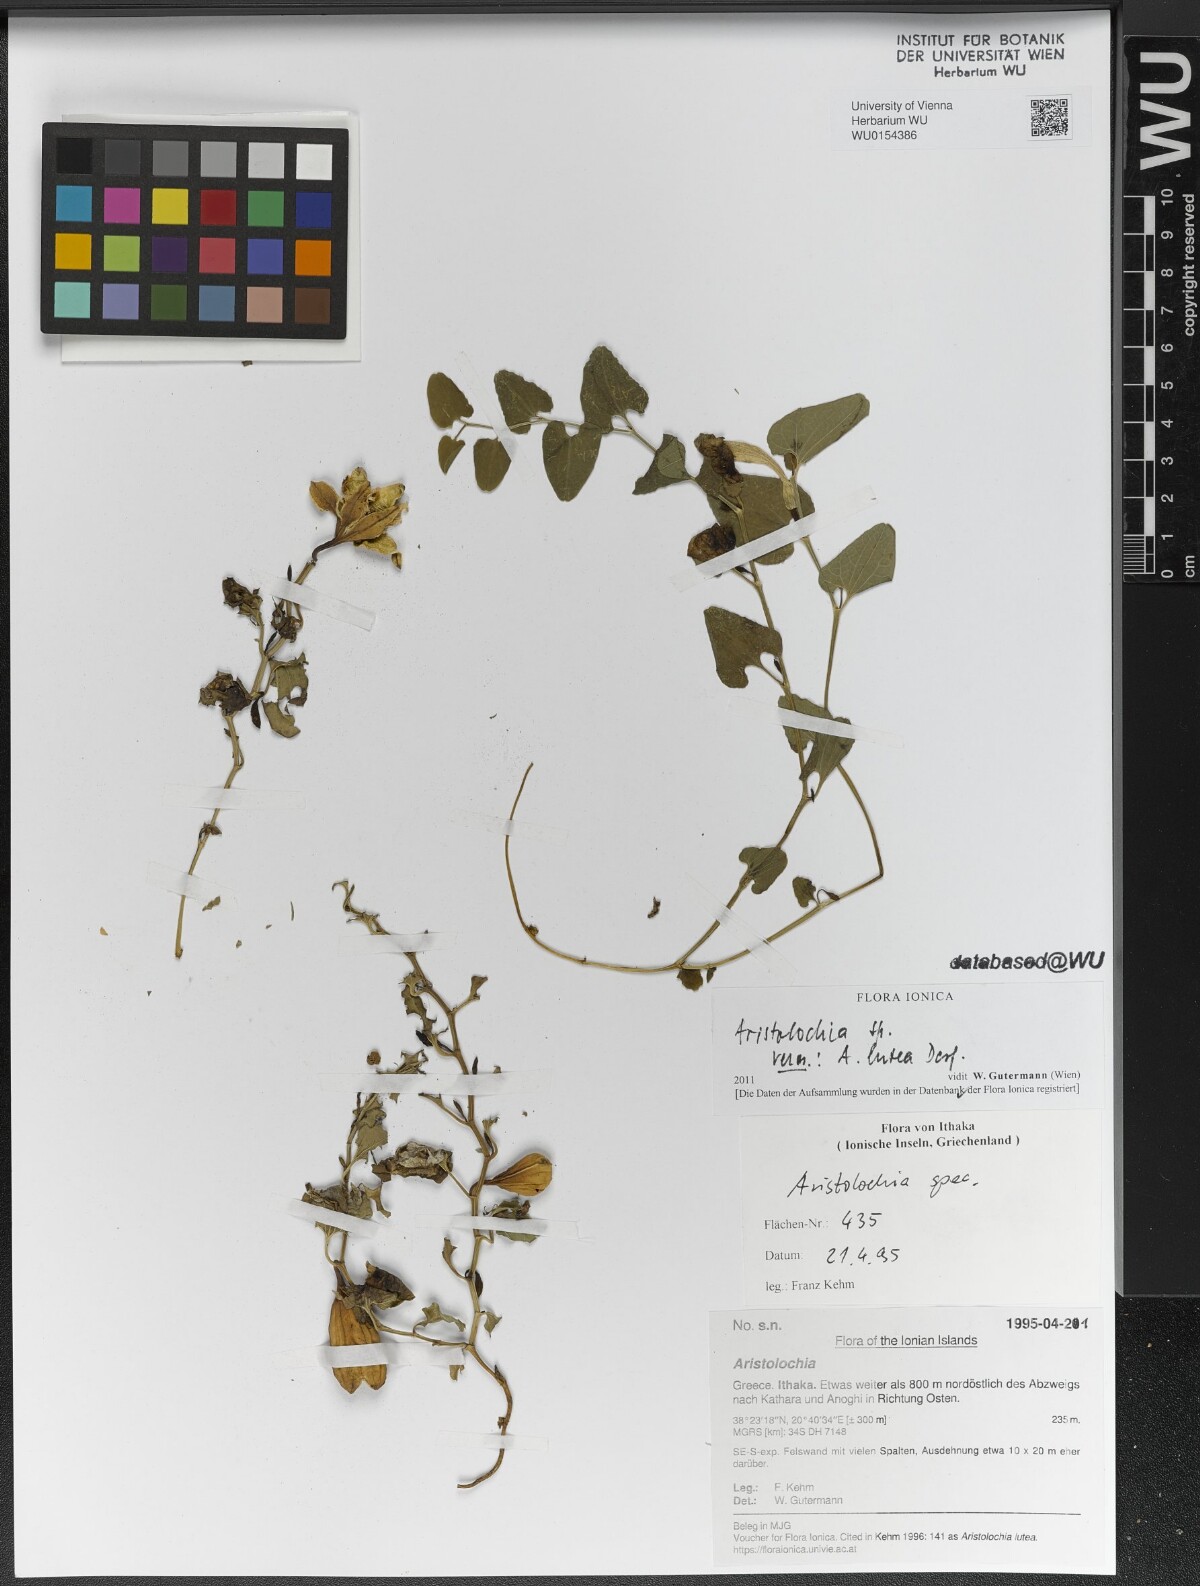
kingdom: Plantae
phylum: Tracheophyta
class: Magnoliopsida
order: Piperales
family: Aristolochiaceae
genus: Aristolochia
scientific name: Aristolochia
